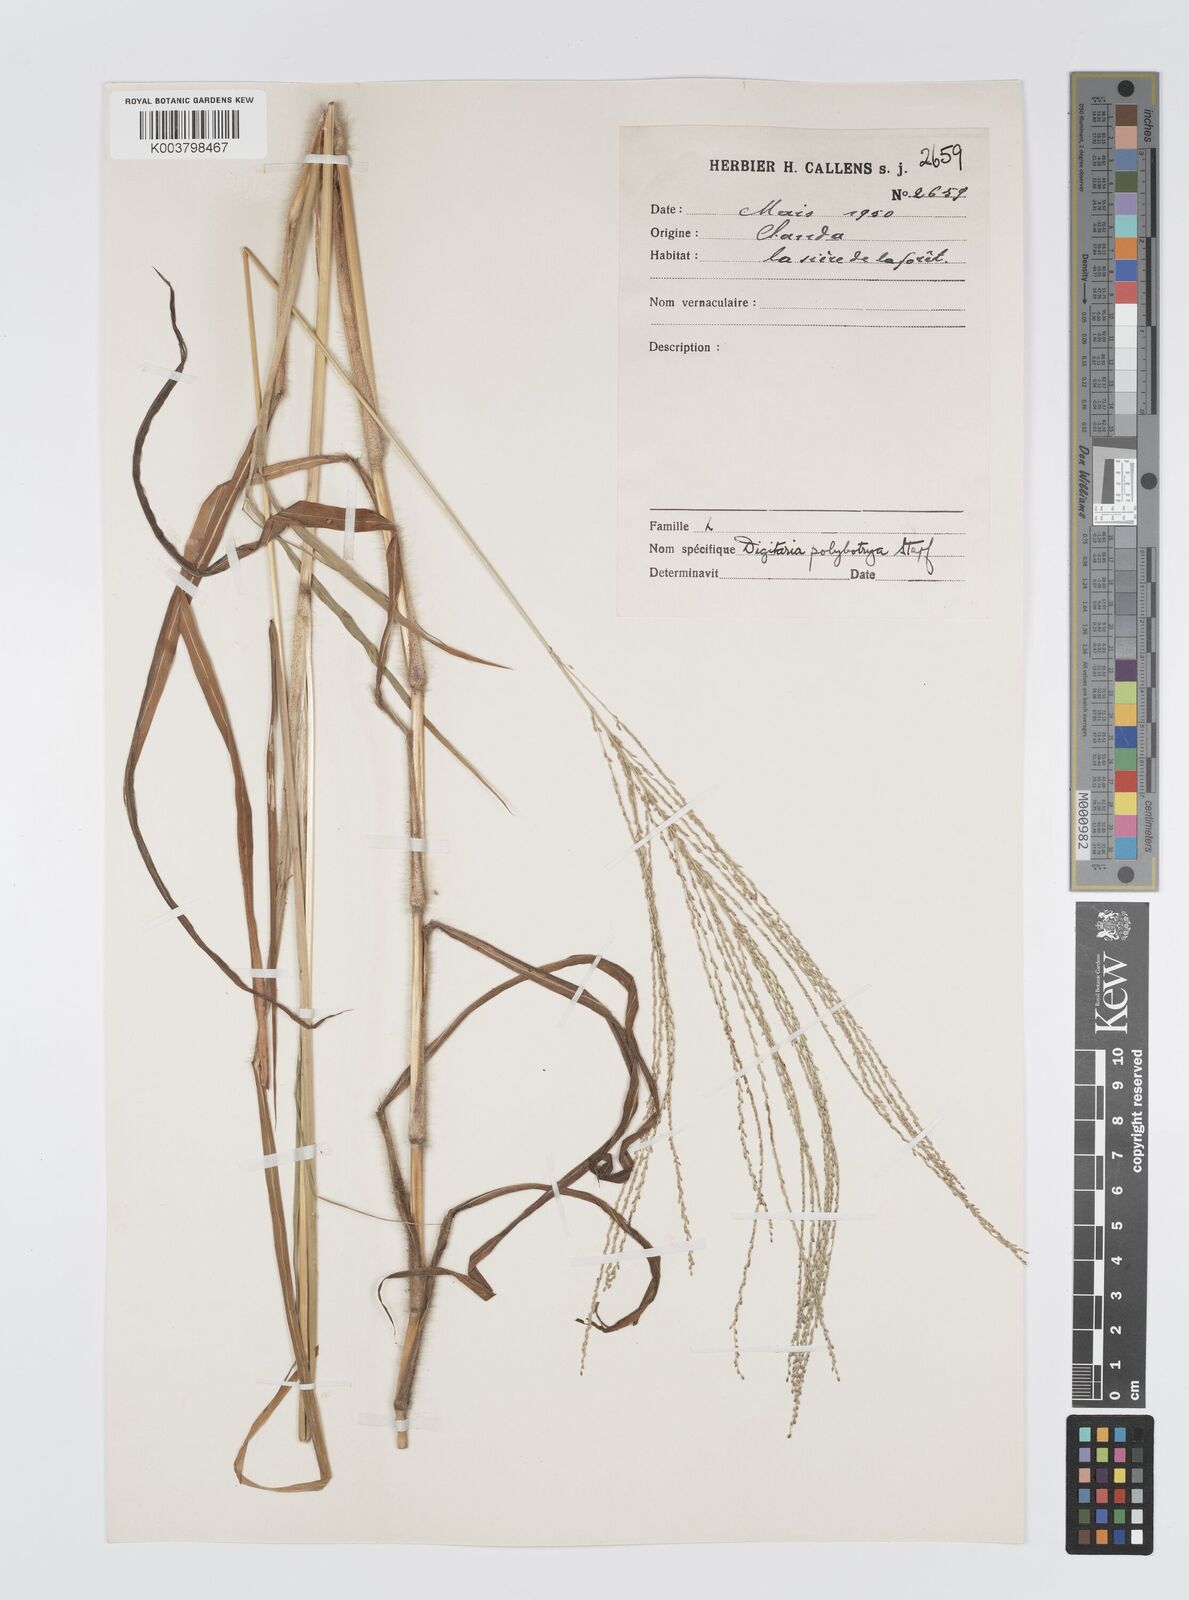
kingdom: Plantae
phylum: Tracheophyta
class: Liliopsida
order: Poales
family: Poaceae
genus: Digitaria
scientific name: Digitaria leptorhachis
